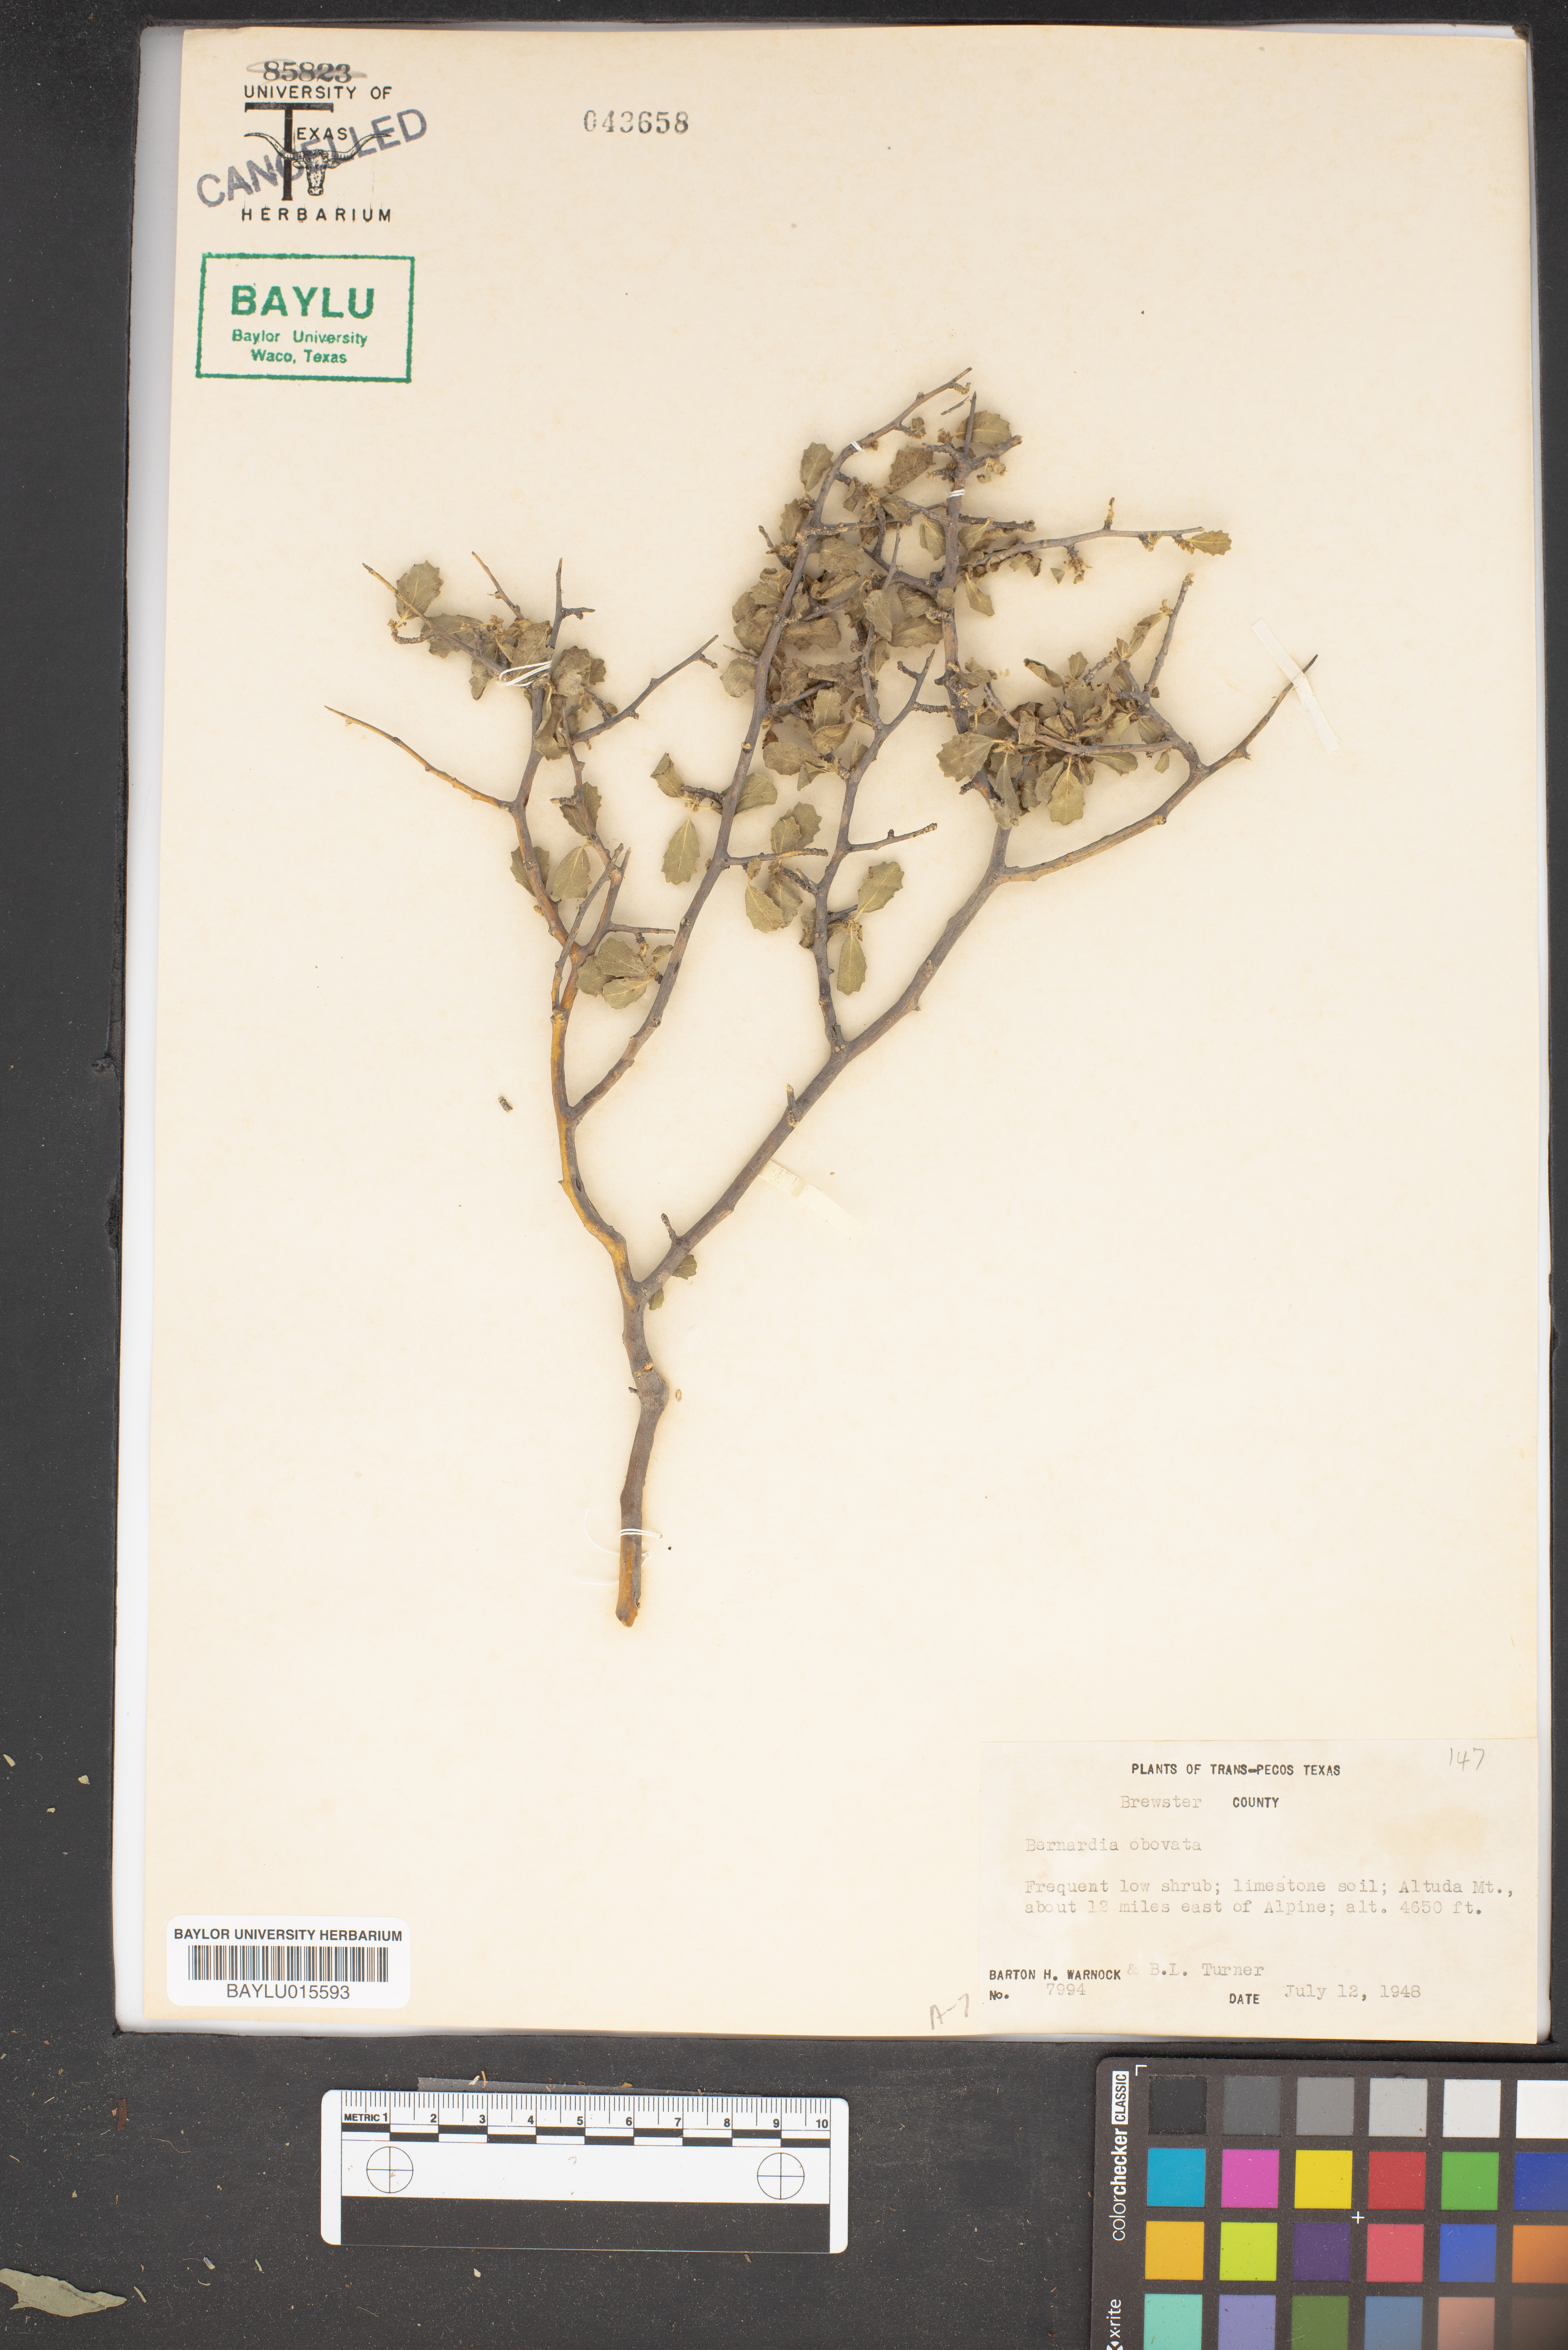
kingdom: Plantae
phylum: Tracheophyta
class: Magnoliopsida
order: Malpighiales
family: Euphorbiaceae
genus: Bernardia
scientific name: Bernardia obovata
